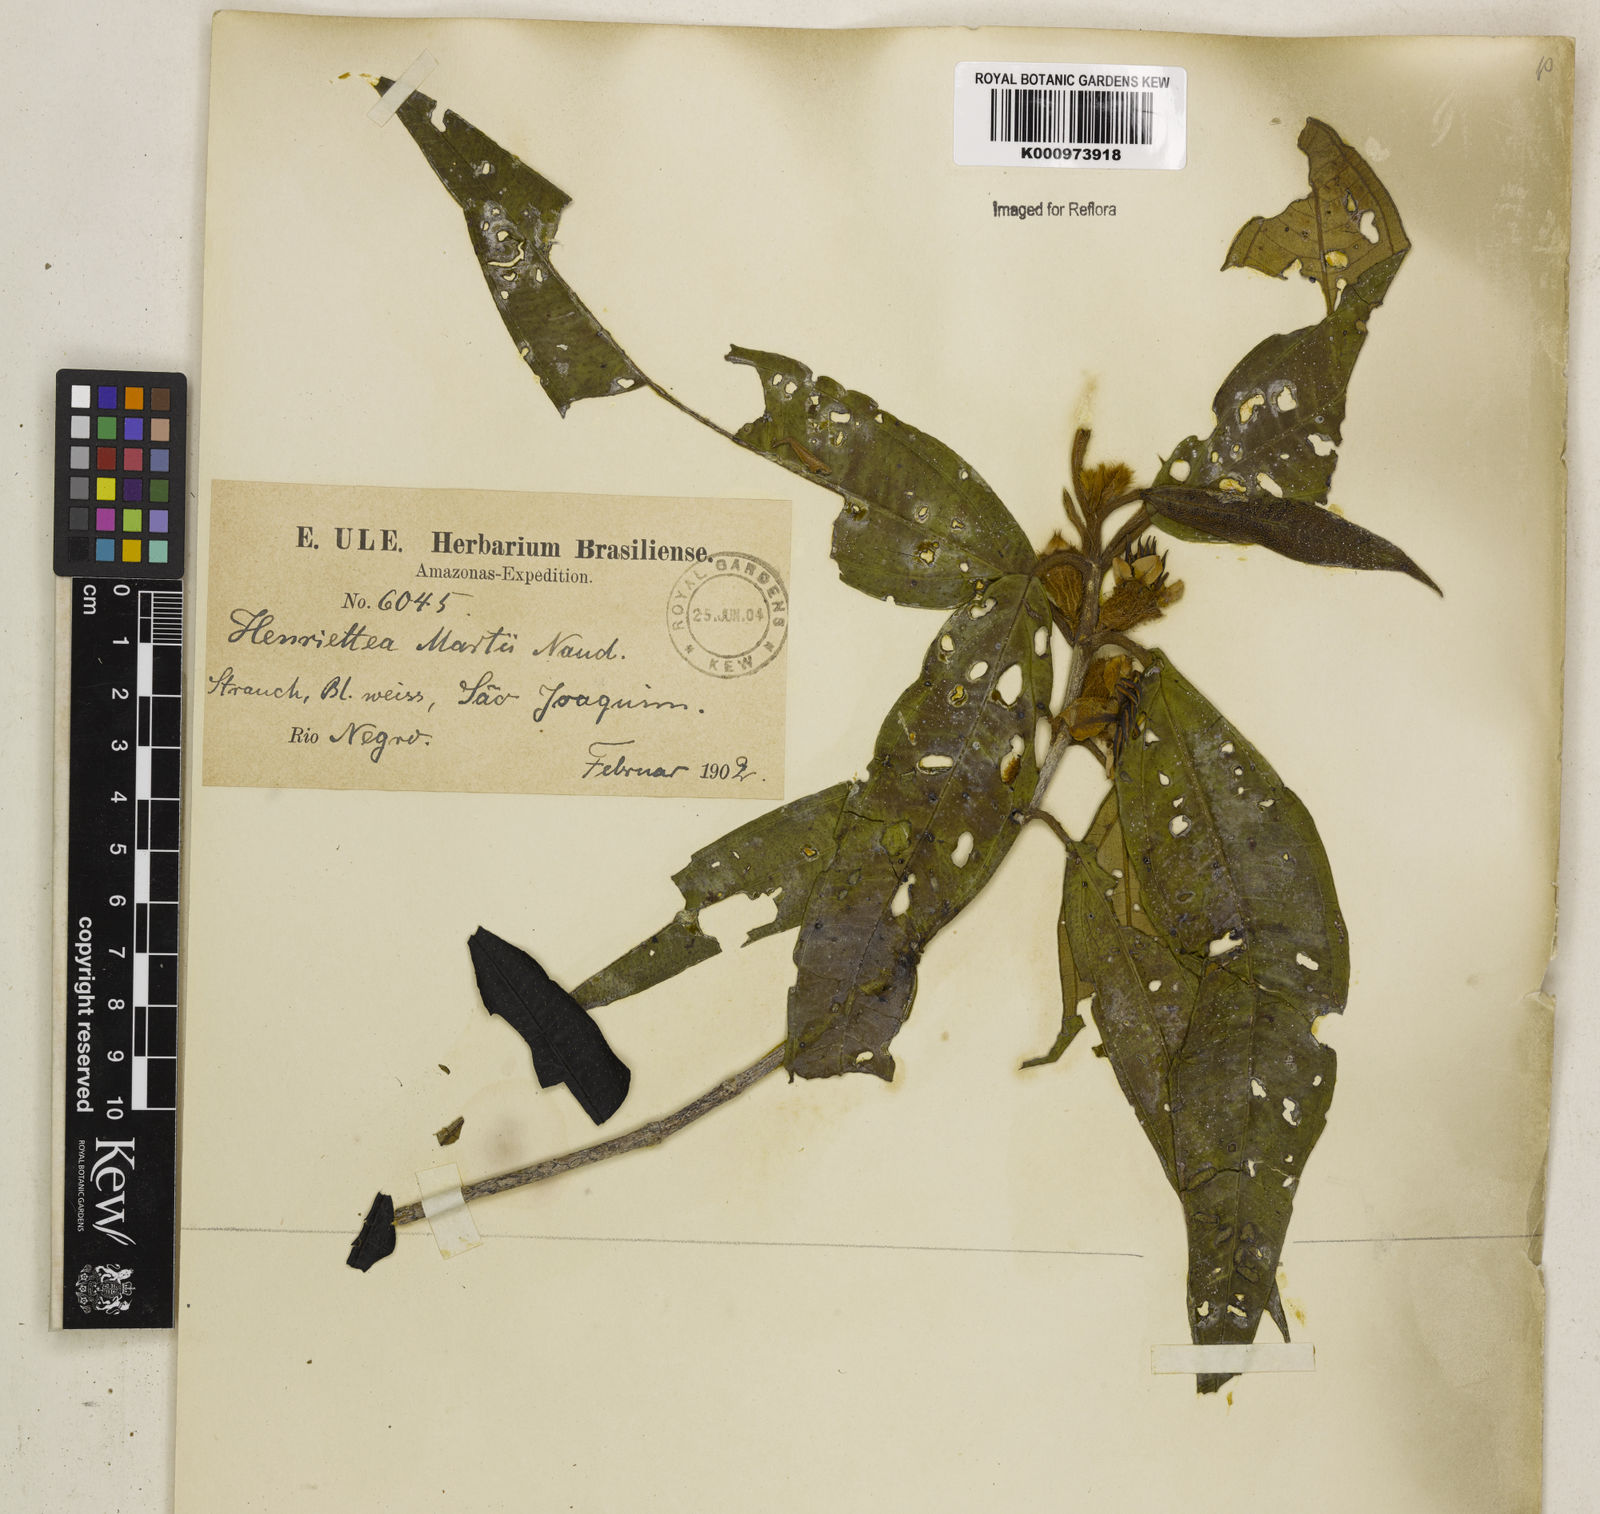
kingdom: Plantae
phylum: Tracheophyta
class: Magnoliopsida
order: Myrtales
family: Melastomataceae
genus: Henriettea
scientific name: Henriettea martiusii
